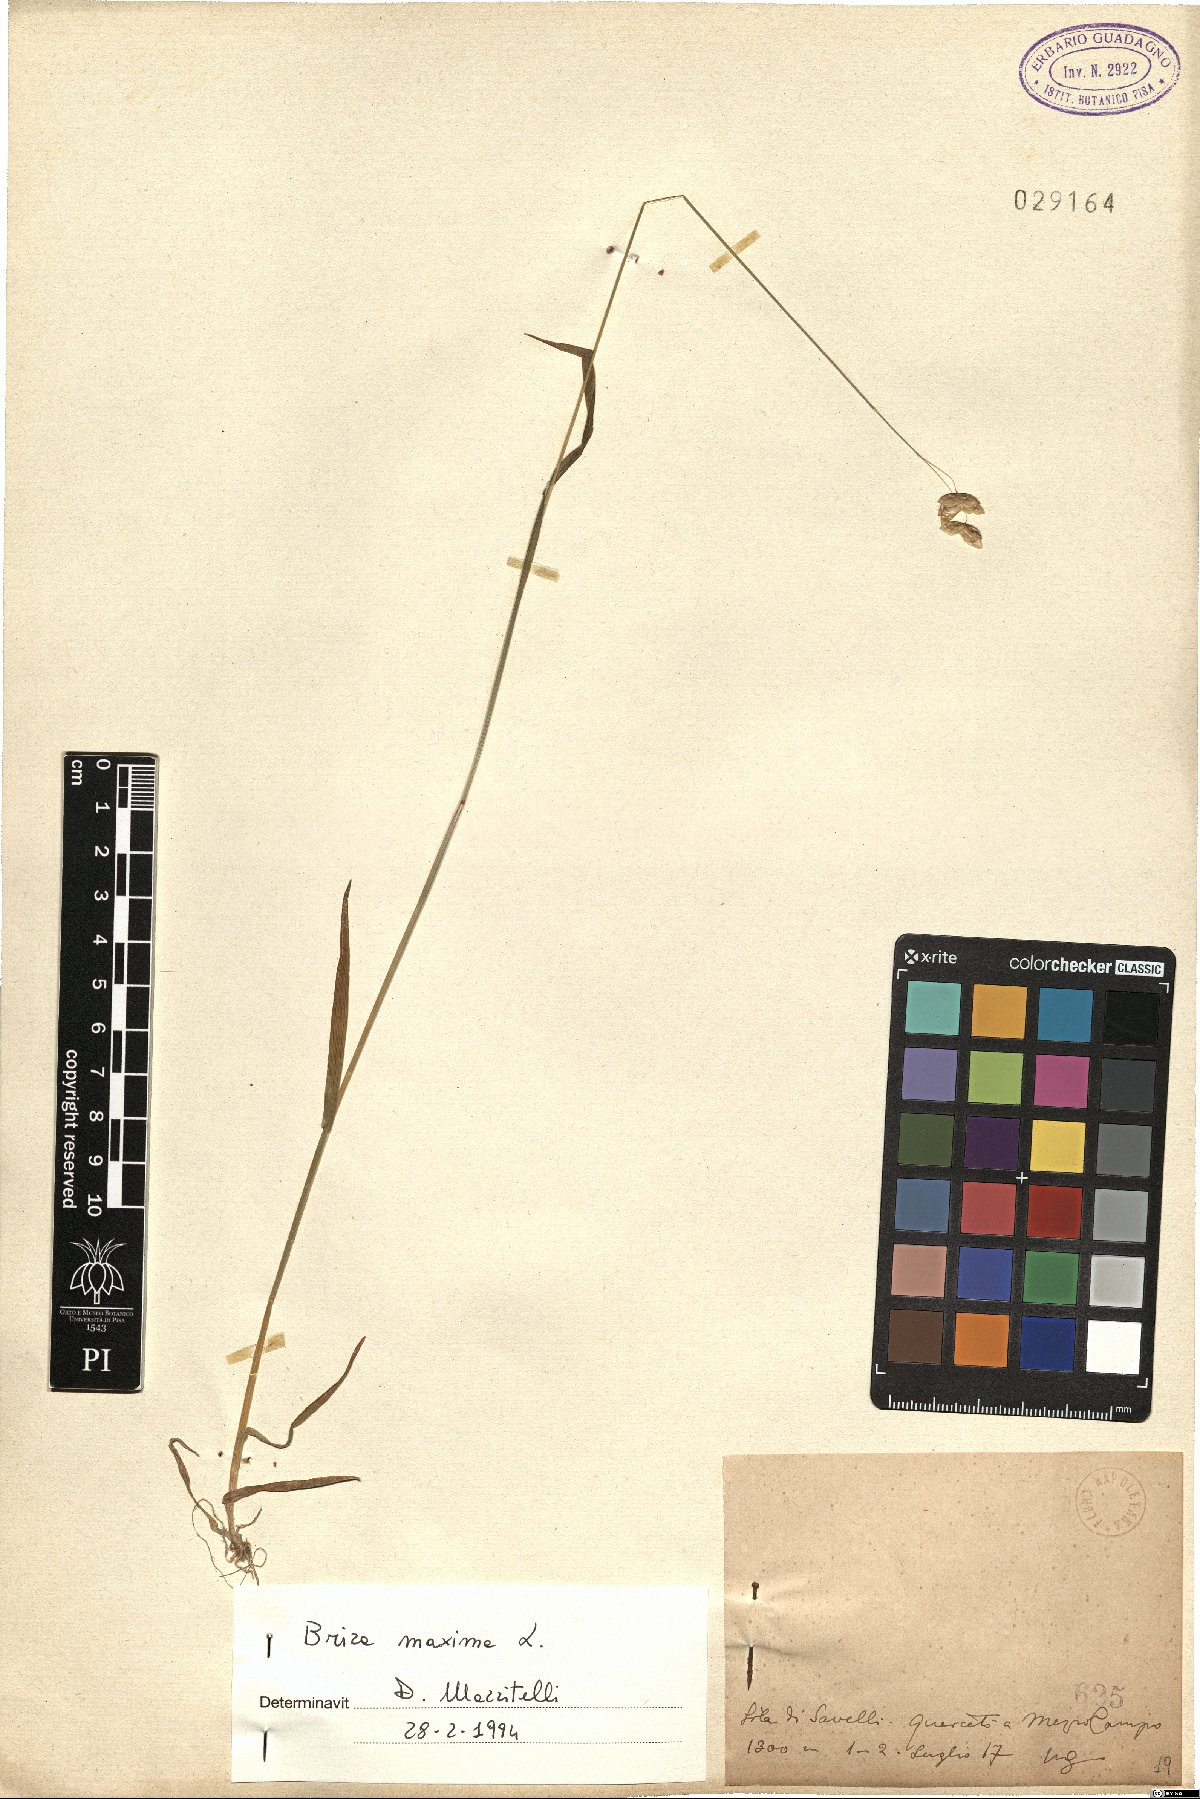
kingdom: Plantae
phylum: Tracheophyta
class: Liliopsida
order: Poales
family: Poaceae
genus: Briza
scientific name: Briza maxima
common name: Big quakinggrass
